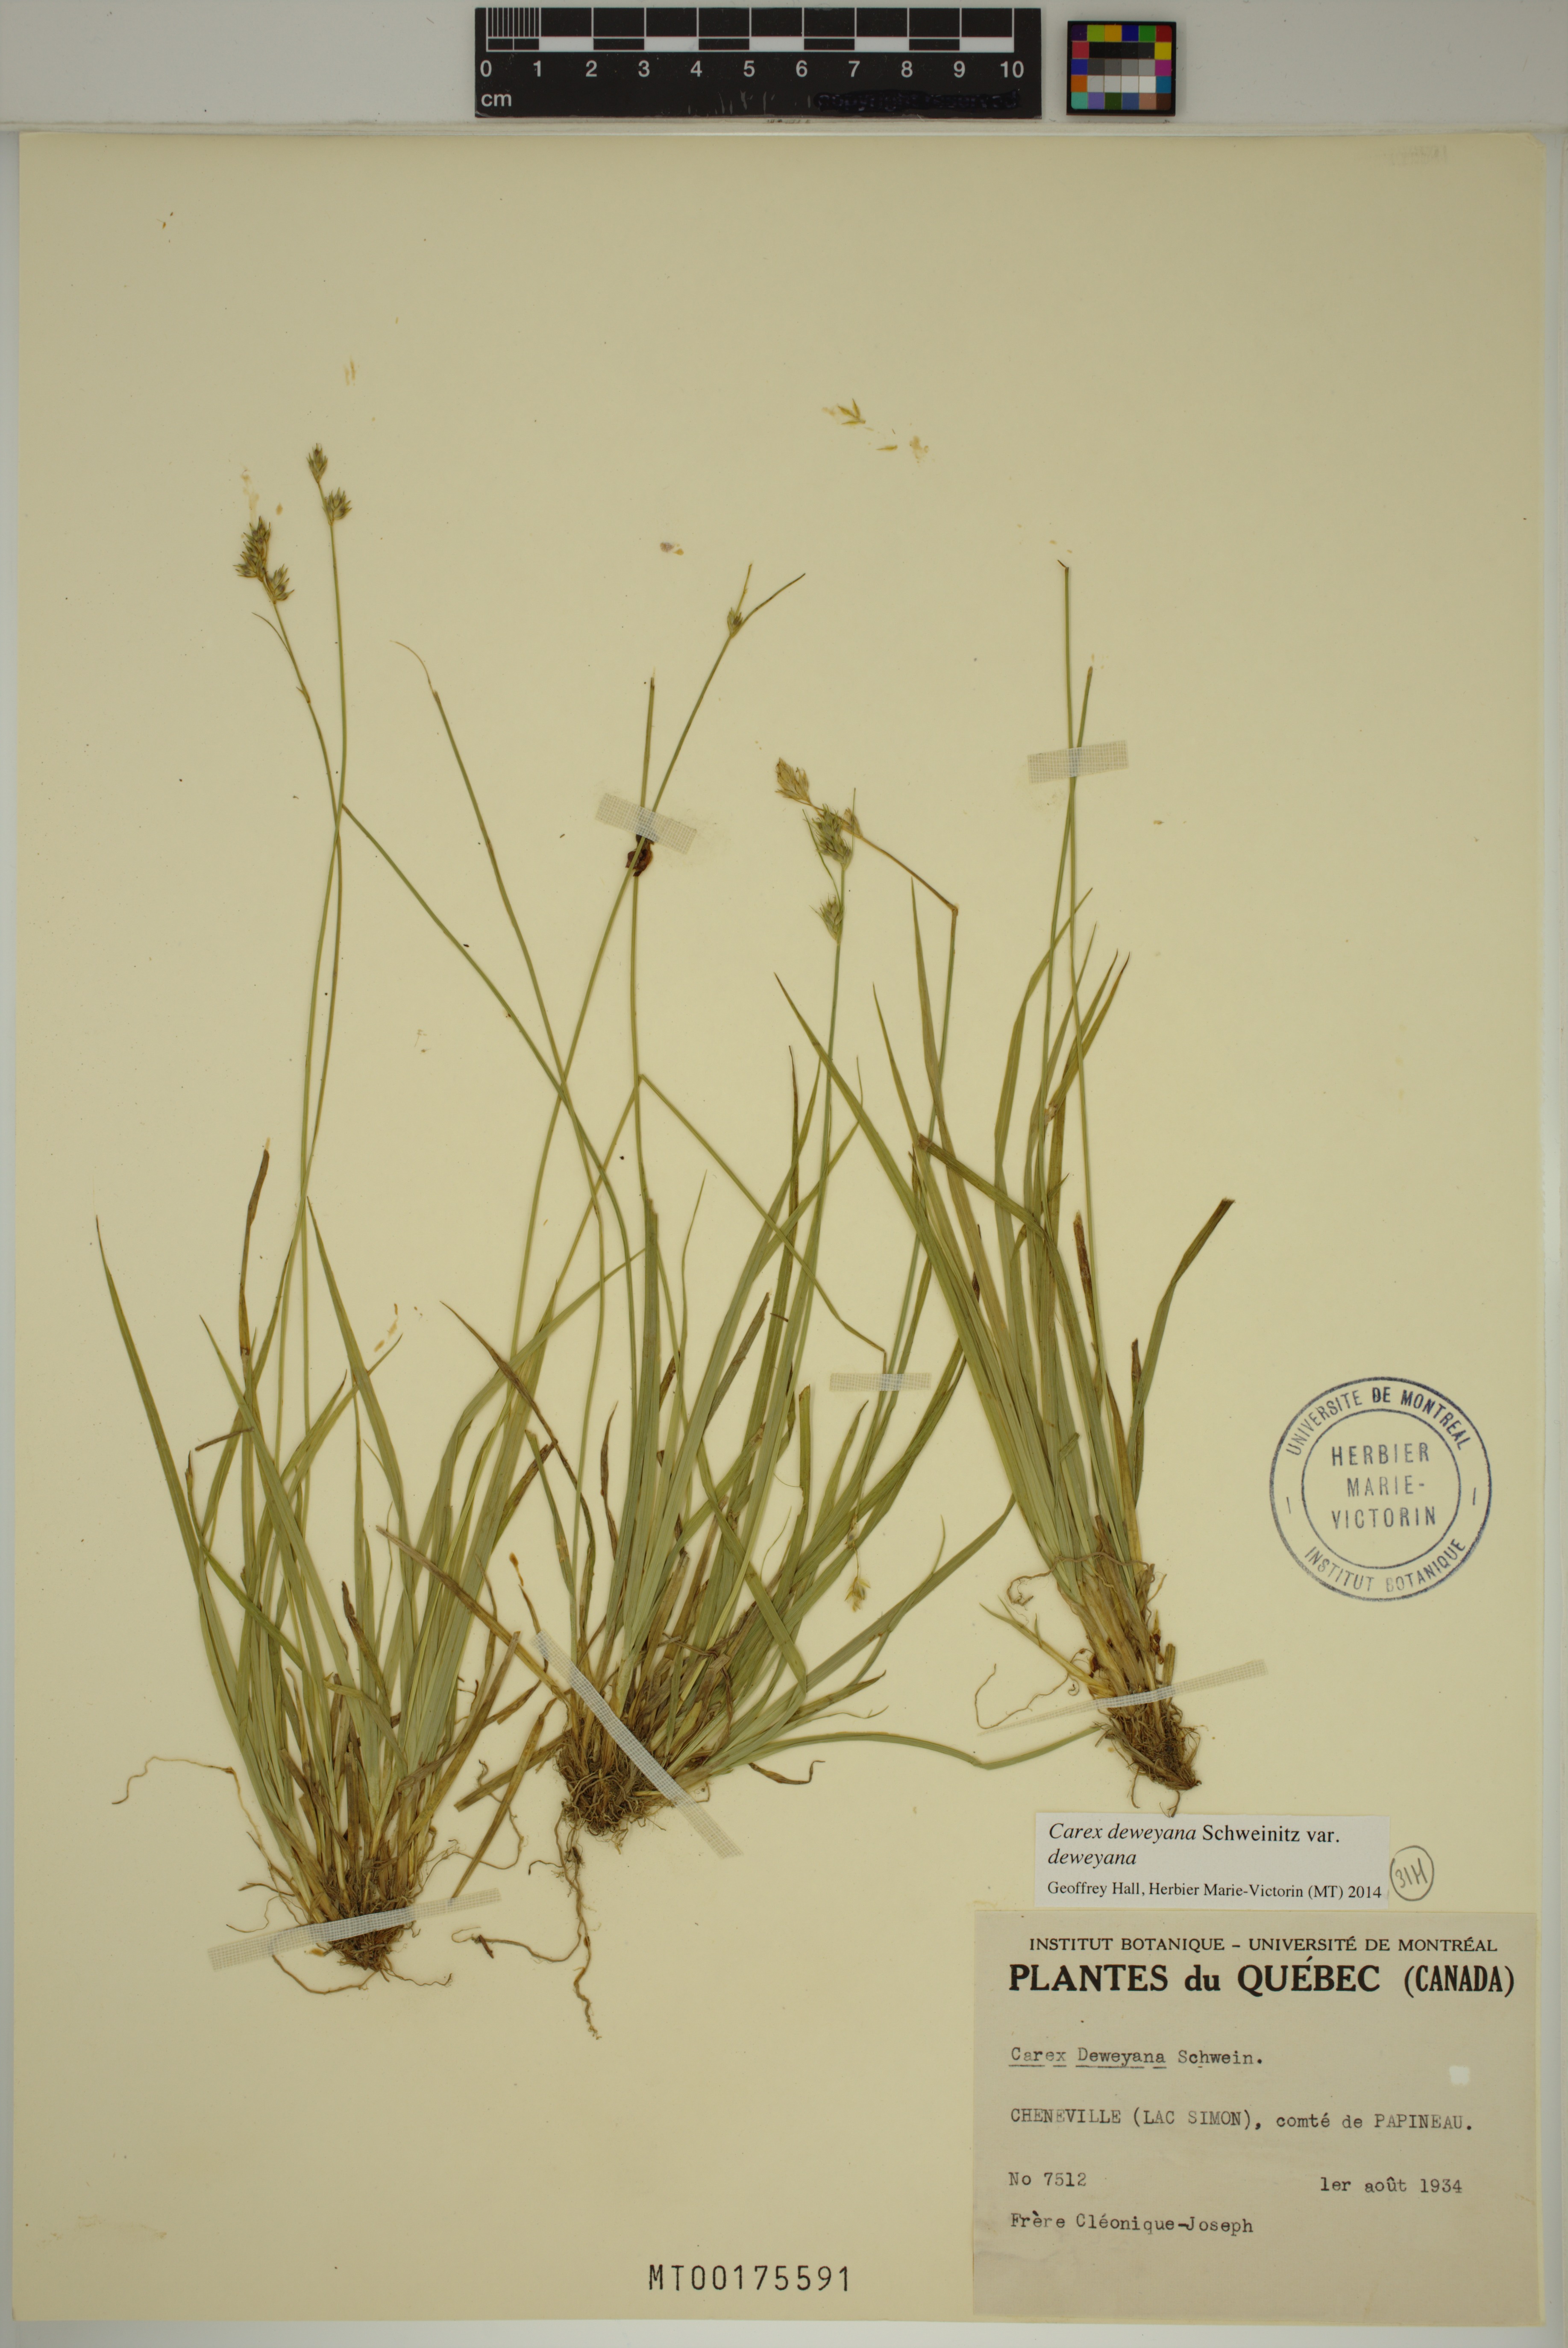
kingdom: Plantae
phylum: Tracheophyta
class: Liliopsida
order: Poales
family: Cyperaceae
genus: Carex
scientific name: Carex deweyana
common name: Dewey's sedge
